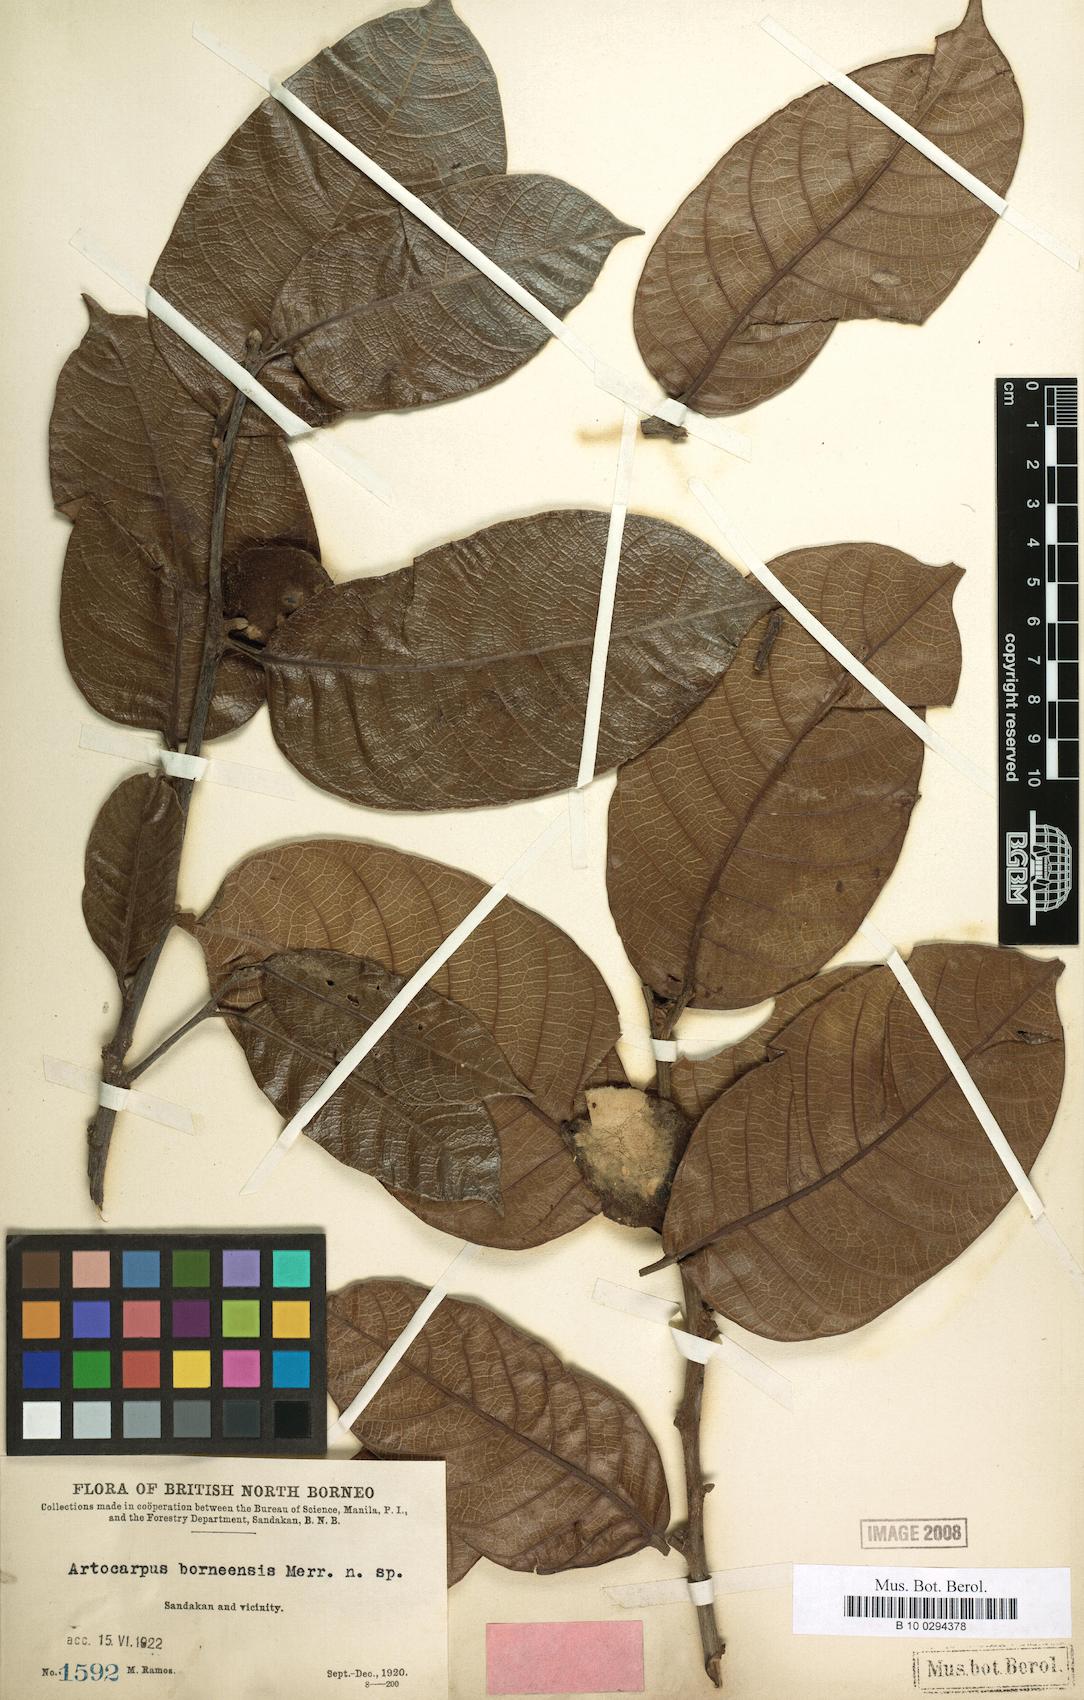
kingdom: Plantae
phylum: Tracheophyta
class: Magnoliopsida
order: Rosales
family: Moraceae
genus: Artocarpus
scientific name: Artocarpus lamellosus
